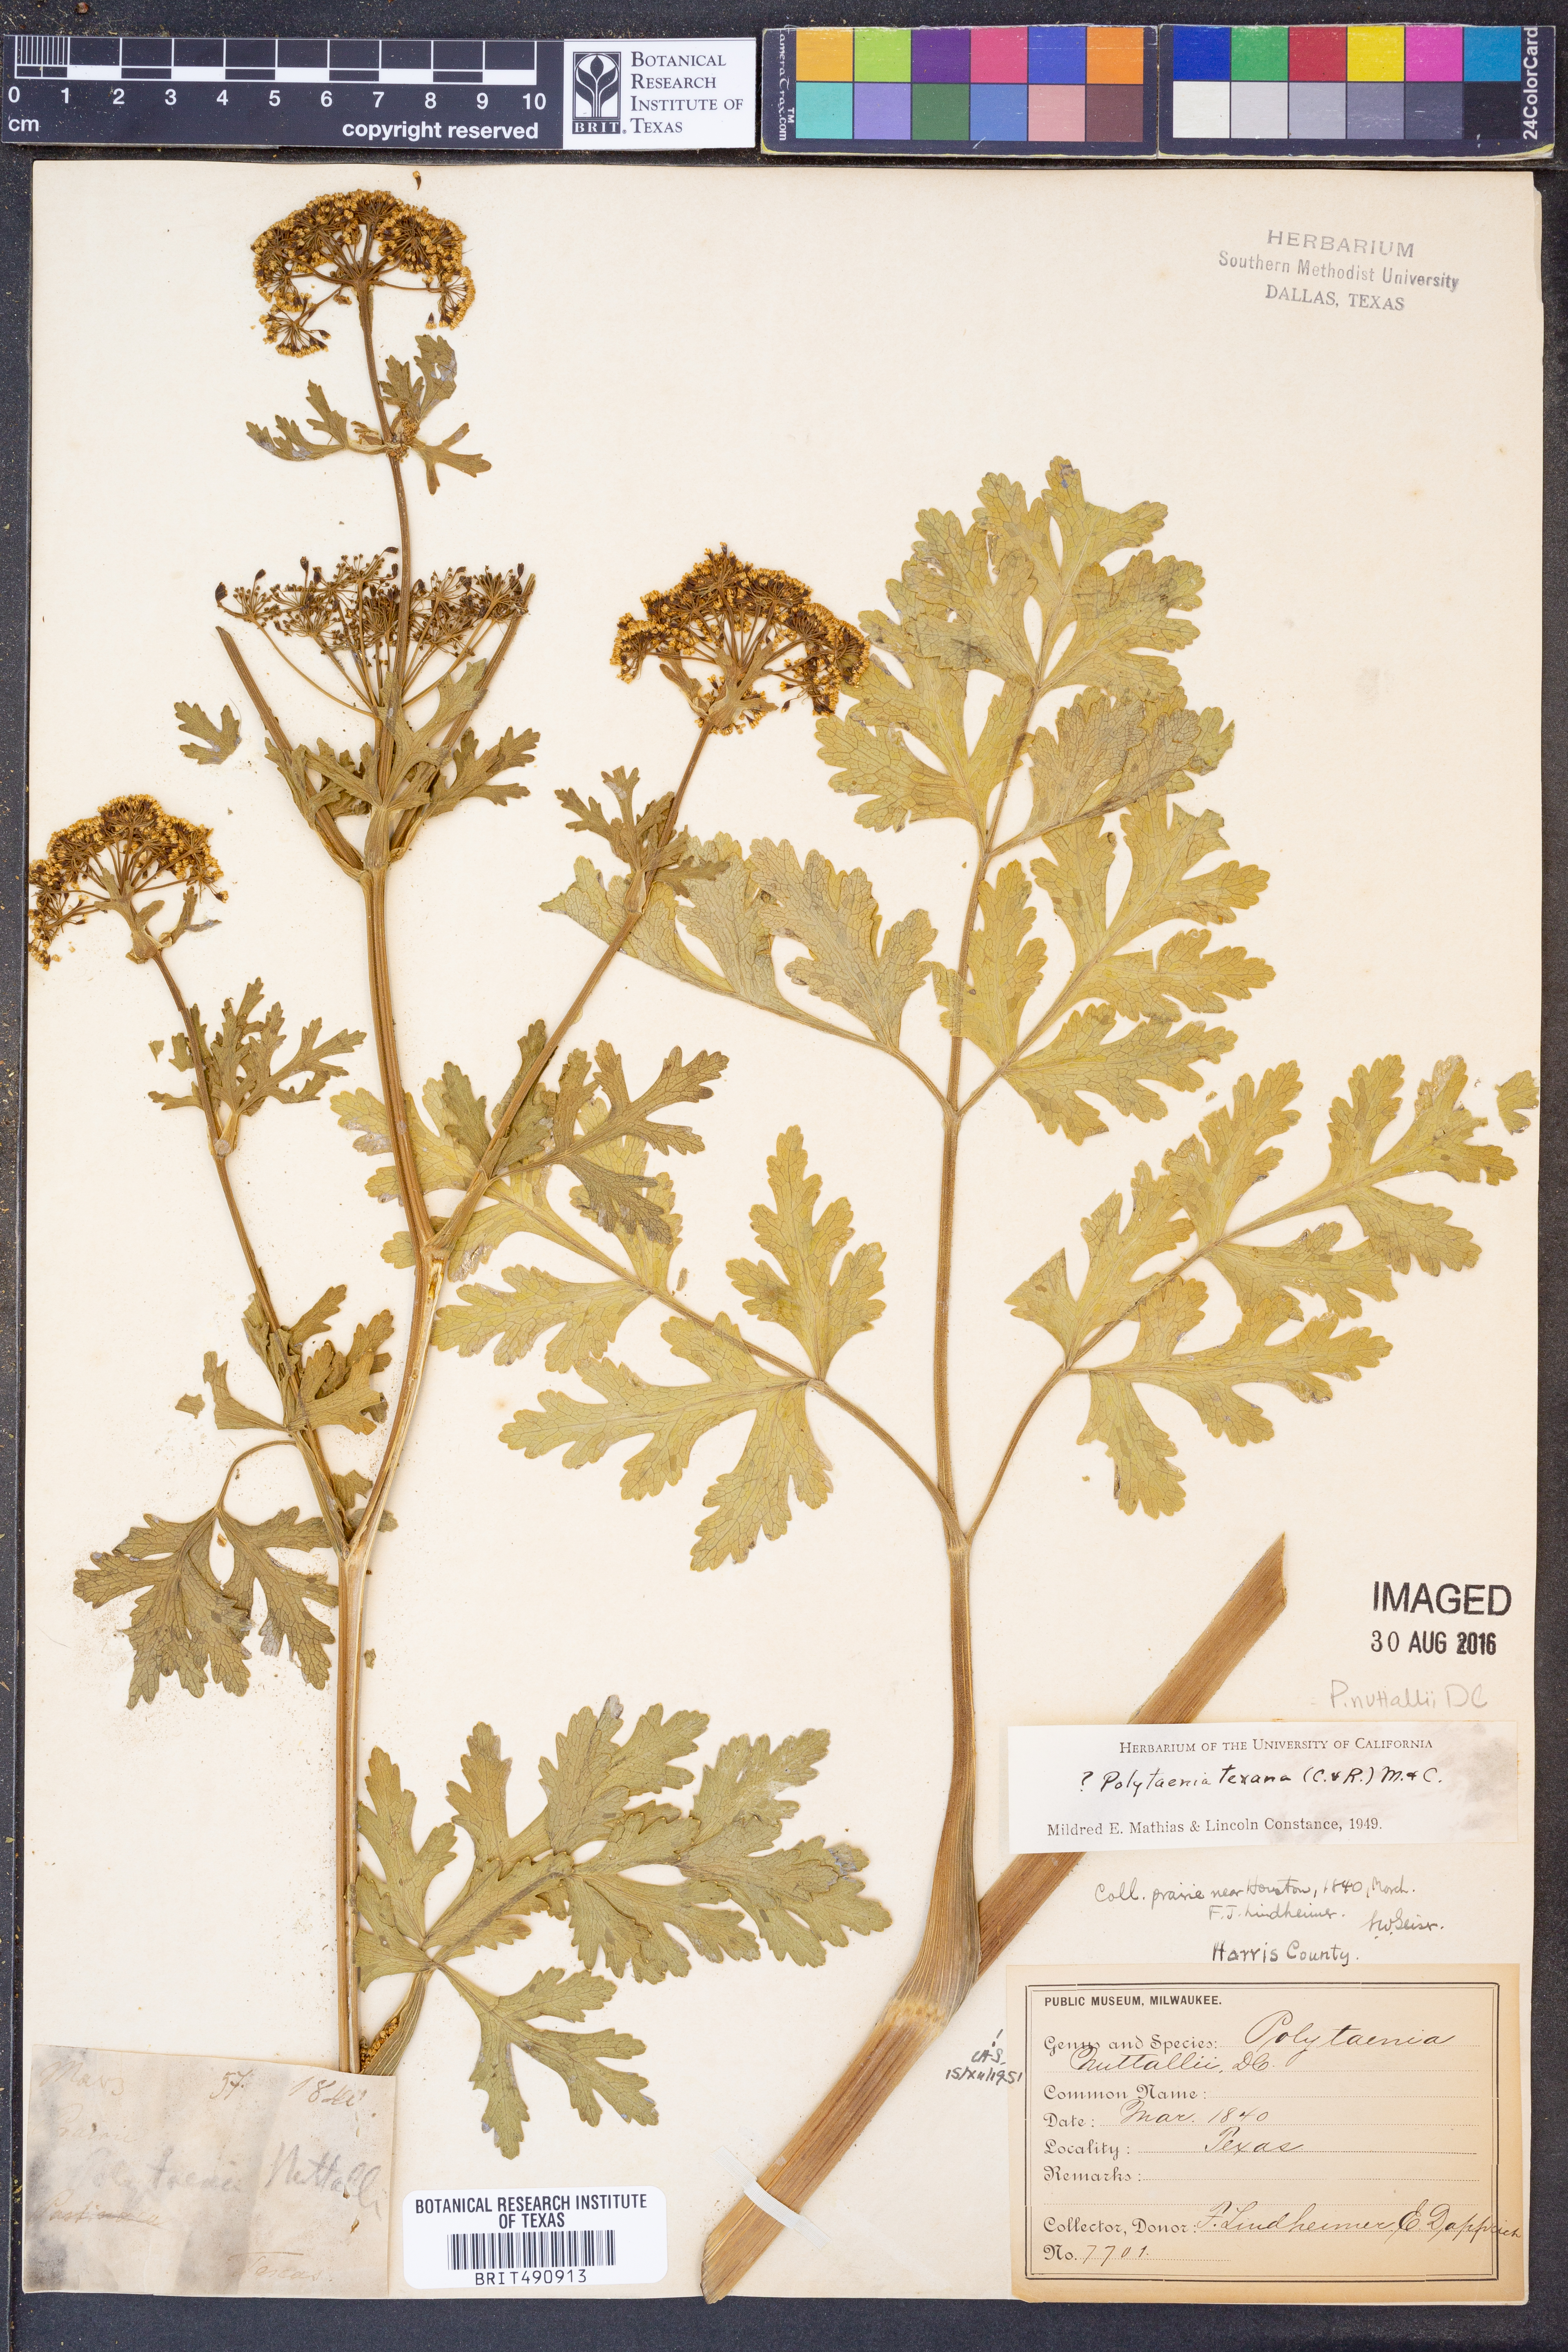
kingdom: Plantae
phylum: Tracheophyta
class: Magnoliopsida
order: Apiales
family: Apiaceae
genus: Polytaenia
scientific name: Polytaenia nuttallii
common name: Prairie-parsley
